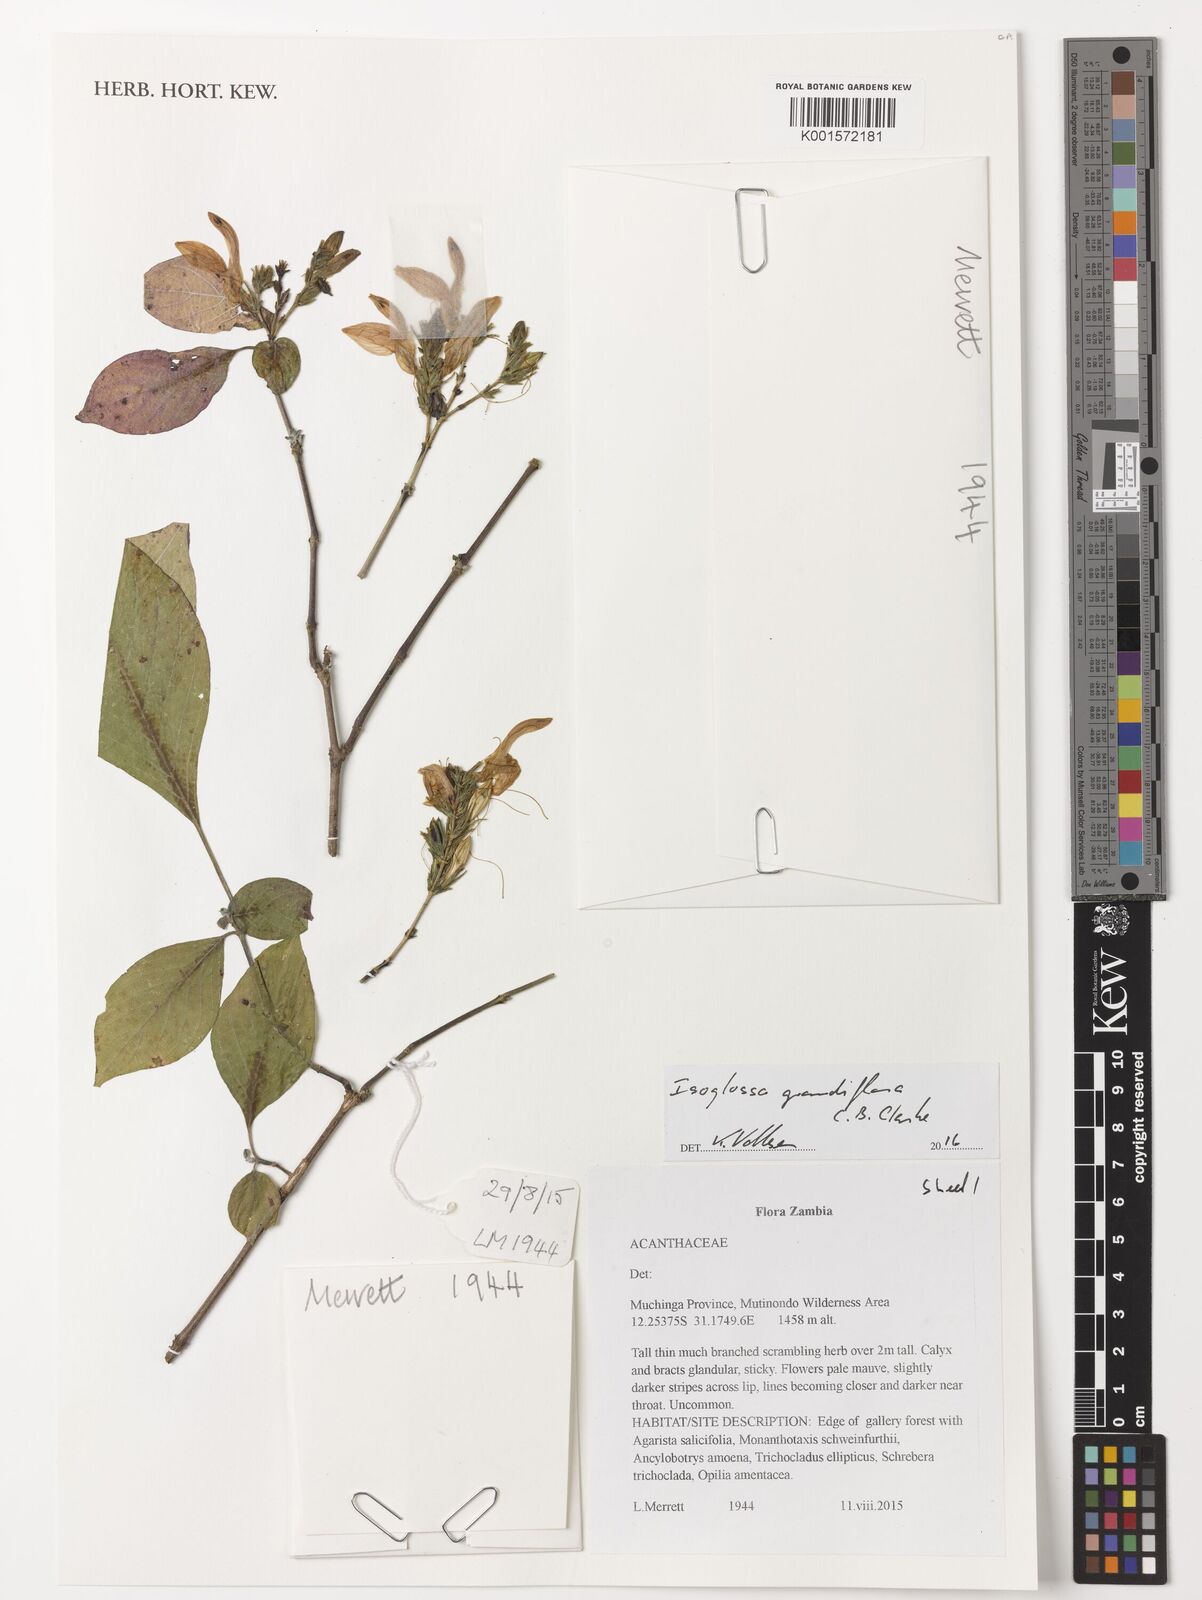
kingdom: Plantae
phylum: Tracheophyta
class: Magnoliopsida
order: Lamiales
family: Acanthaceae
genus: Isoglossa
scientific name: Isoglossa grandiflora
